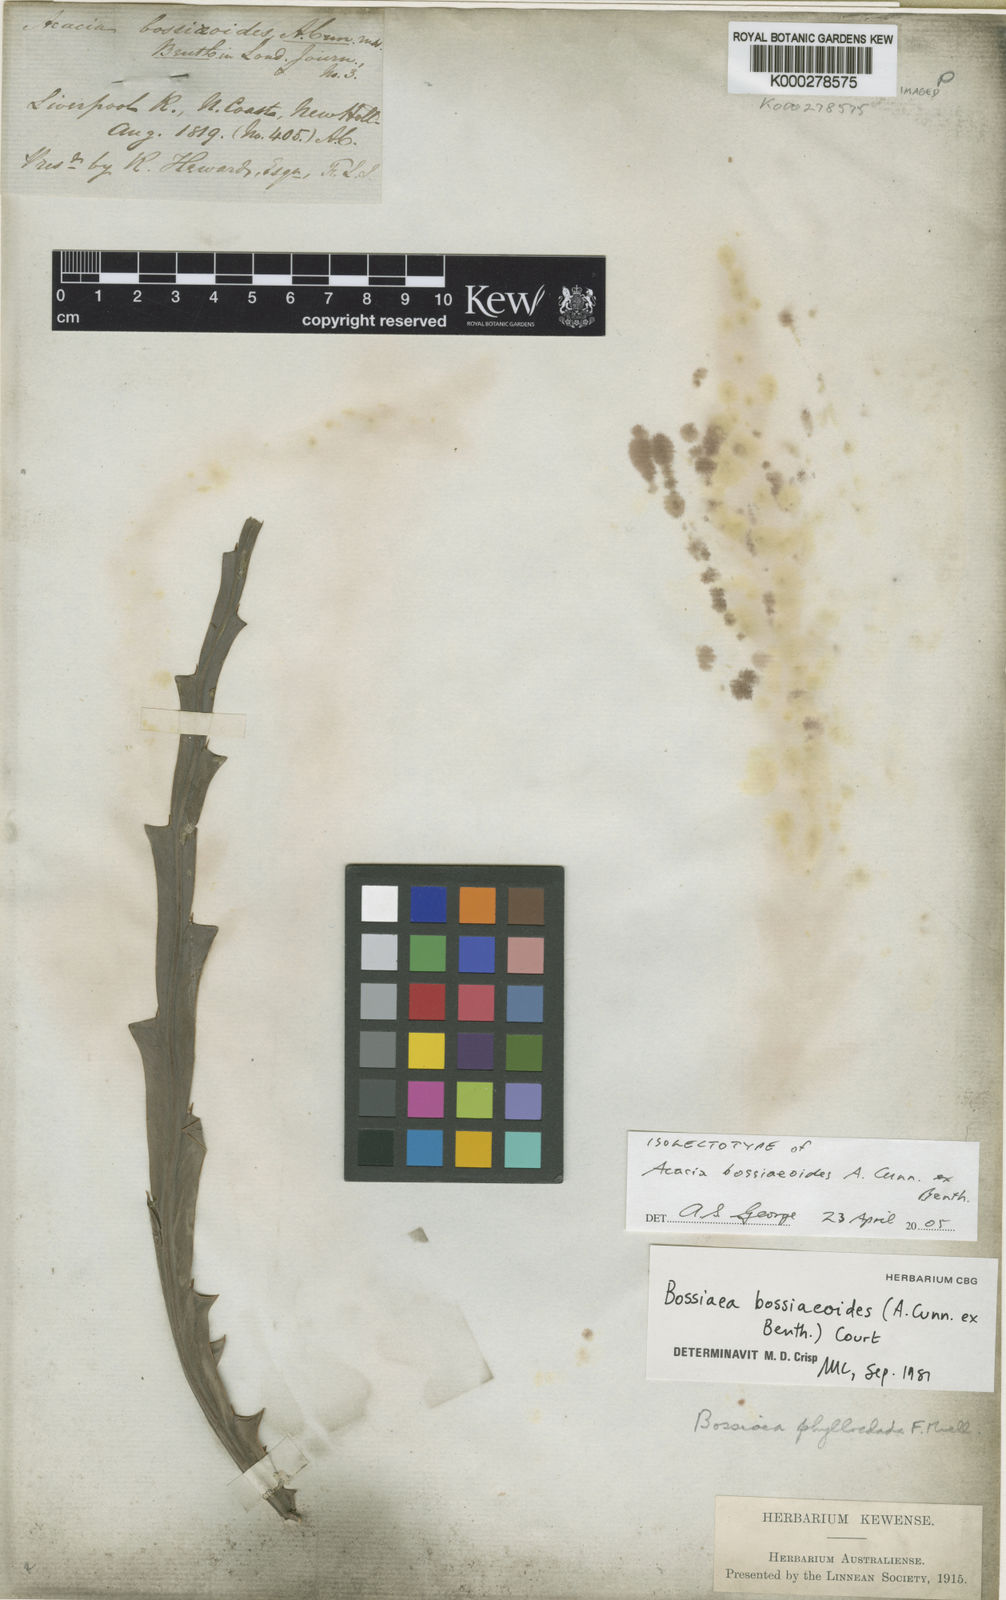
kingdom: Plantae
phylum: Tracheophyta
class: Magnoliopsida
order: Fabales
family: Fabaceae
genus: Bossiaea
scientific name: Bossiaea phylloclada
